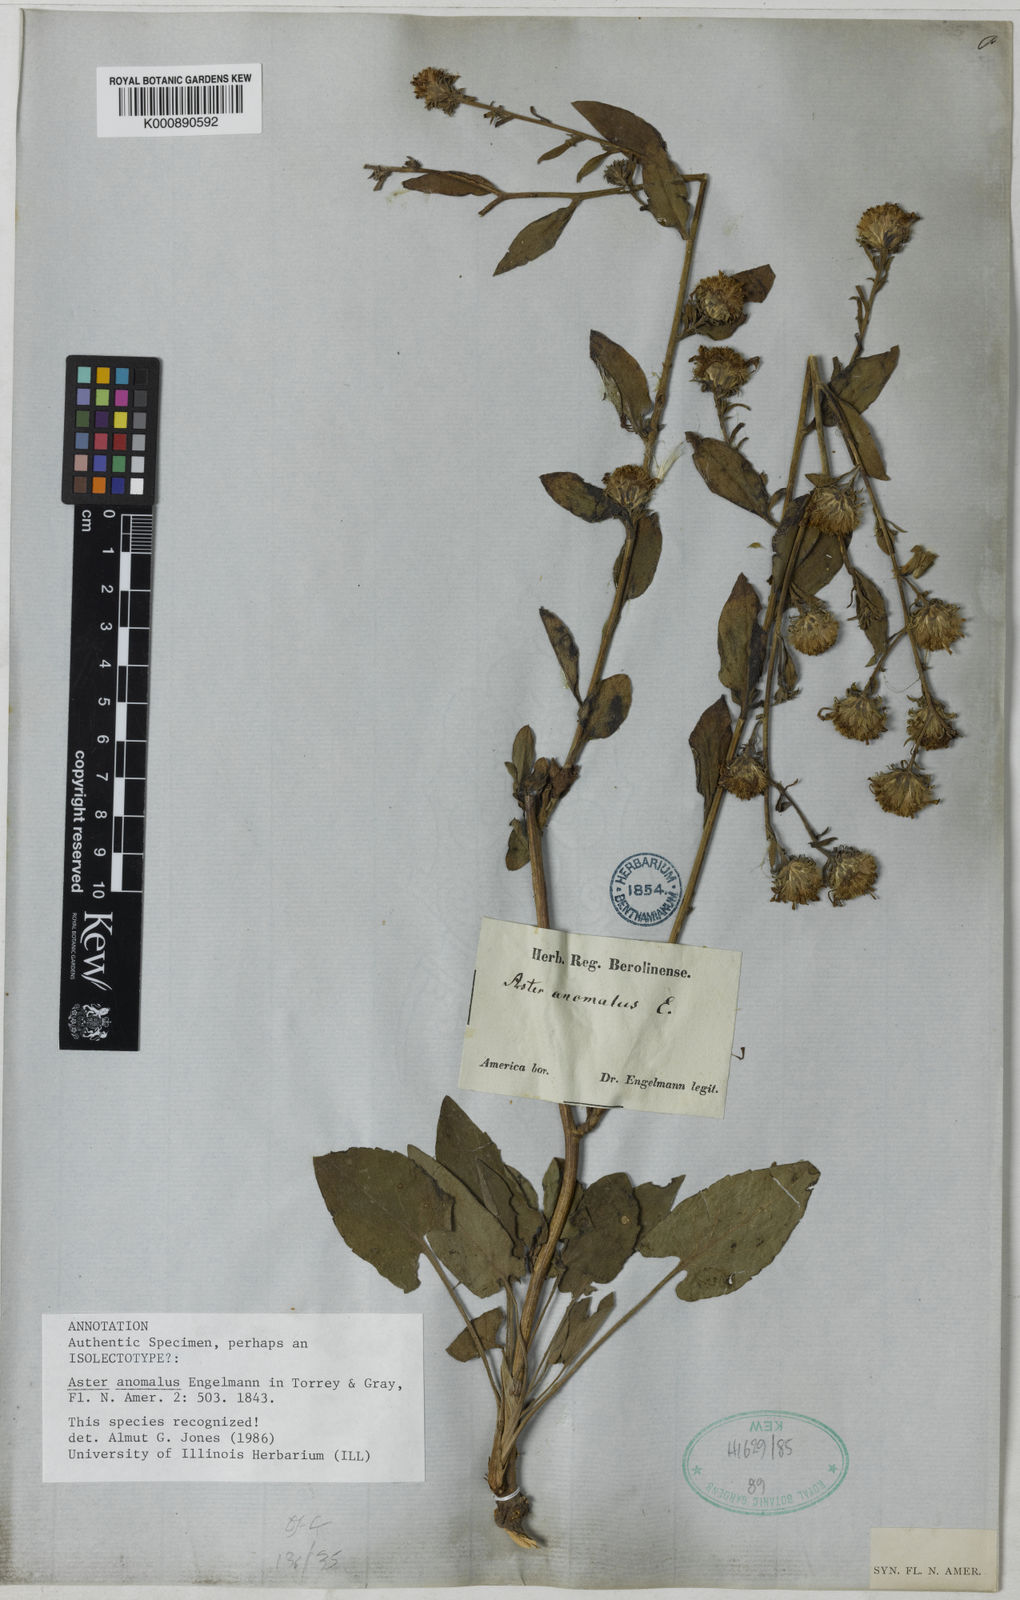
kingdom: Plantae
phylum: Tracheophyta
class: Magnoliopsida
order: Asterales
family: Asteraceae
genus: Symphyotrichum
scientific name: Symphyotrichum anomalum
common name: Many-ray aster
